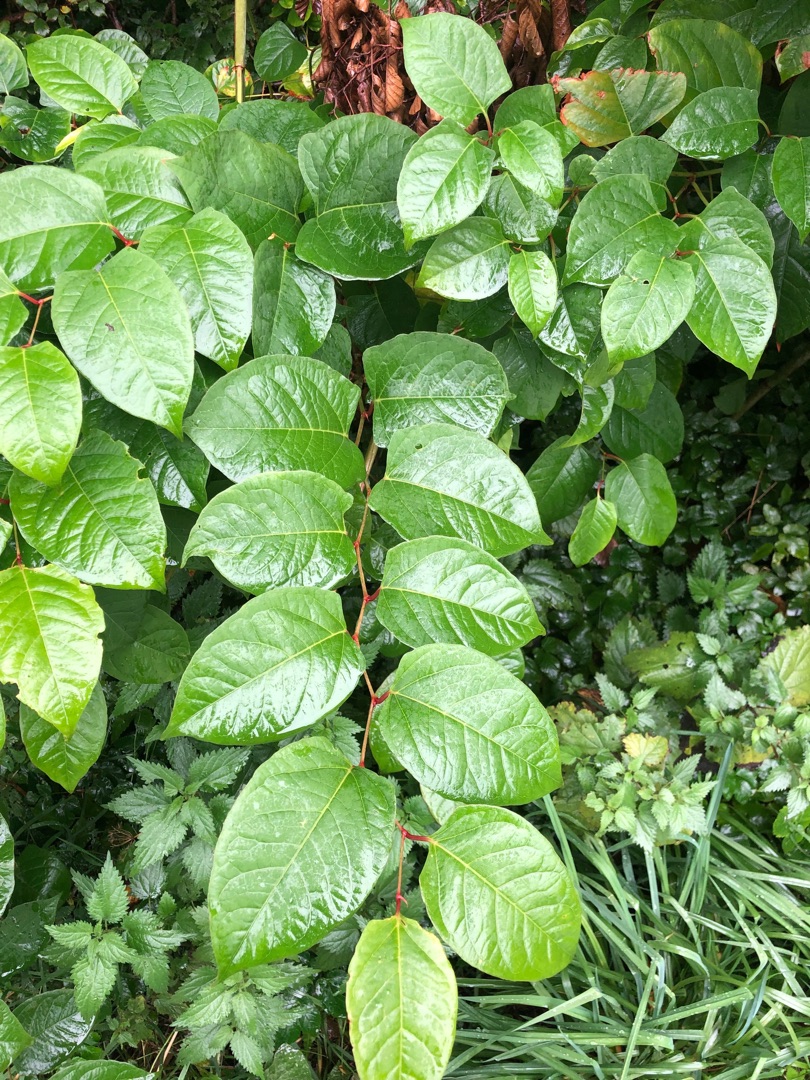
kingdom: Plantae
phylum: Tracheophyta
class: Magnoliopsida
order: Caryophyllales
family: Polygonaceae
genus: Reynoutria
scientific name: Reynoutria japonica
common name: Japan-pileurt
